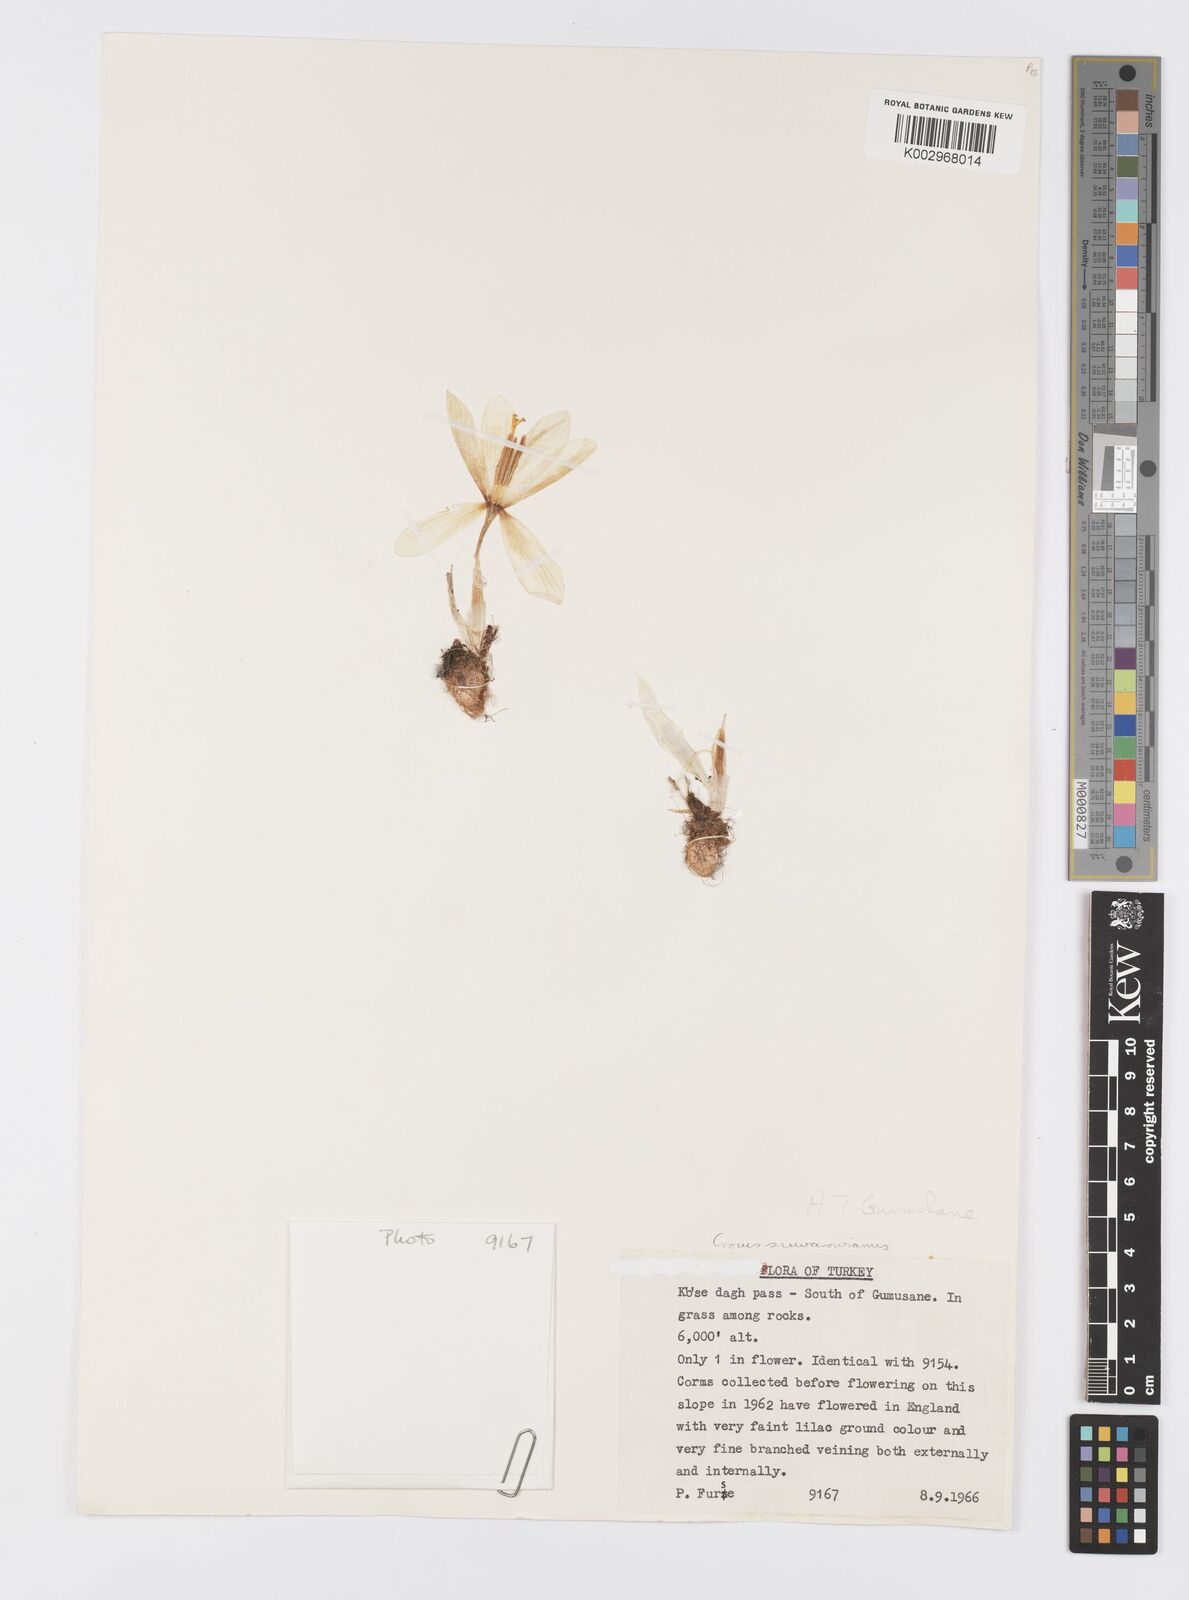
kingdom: Plantae
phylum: Tracheophyta
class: Liliopsida
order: Asparagales
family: Iridaceae
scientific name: Iridaceae
